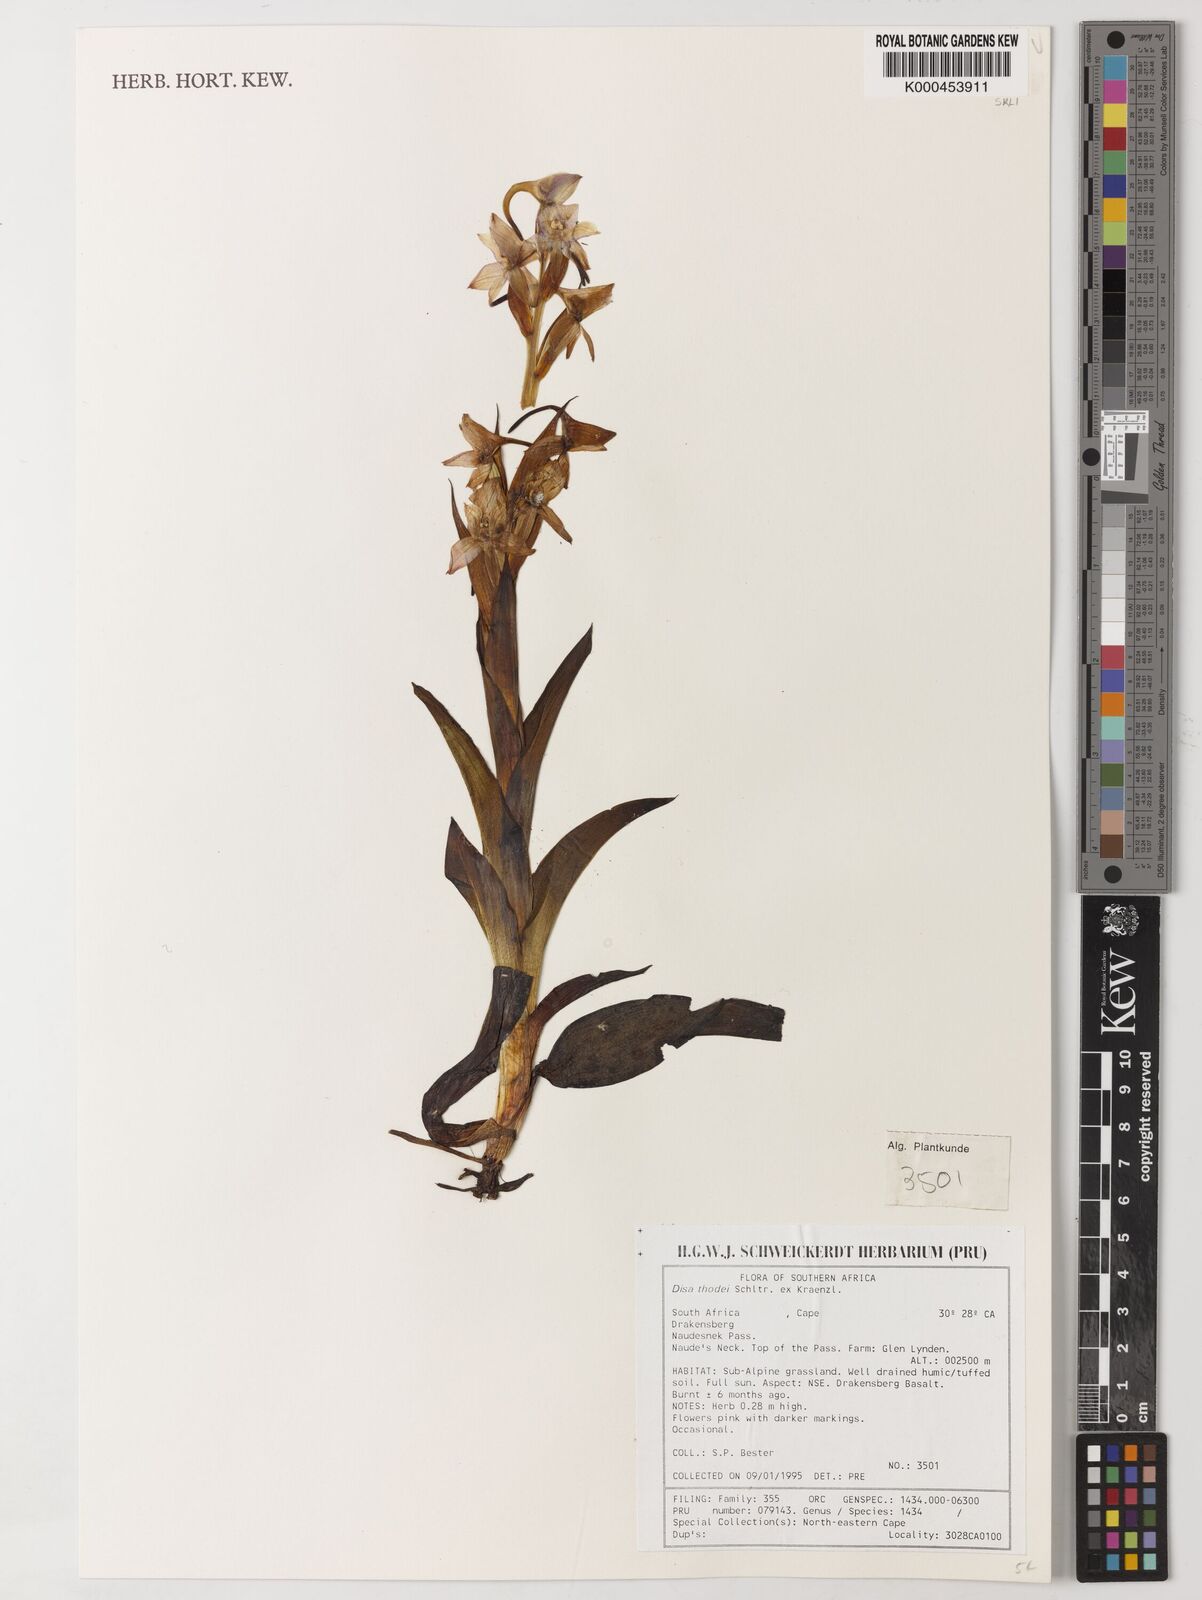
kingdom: Plantae
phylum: Tracheophyta
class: Liliopsida
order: Asparagales
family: Orchidaceae
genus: Disa
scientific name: Disa thodei
